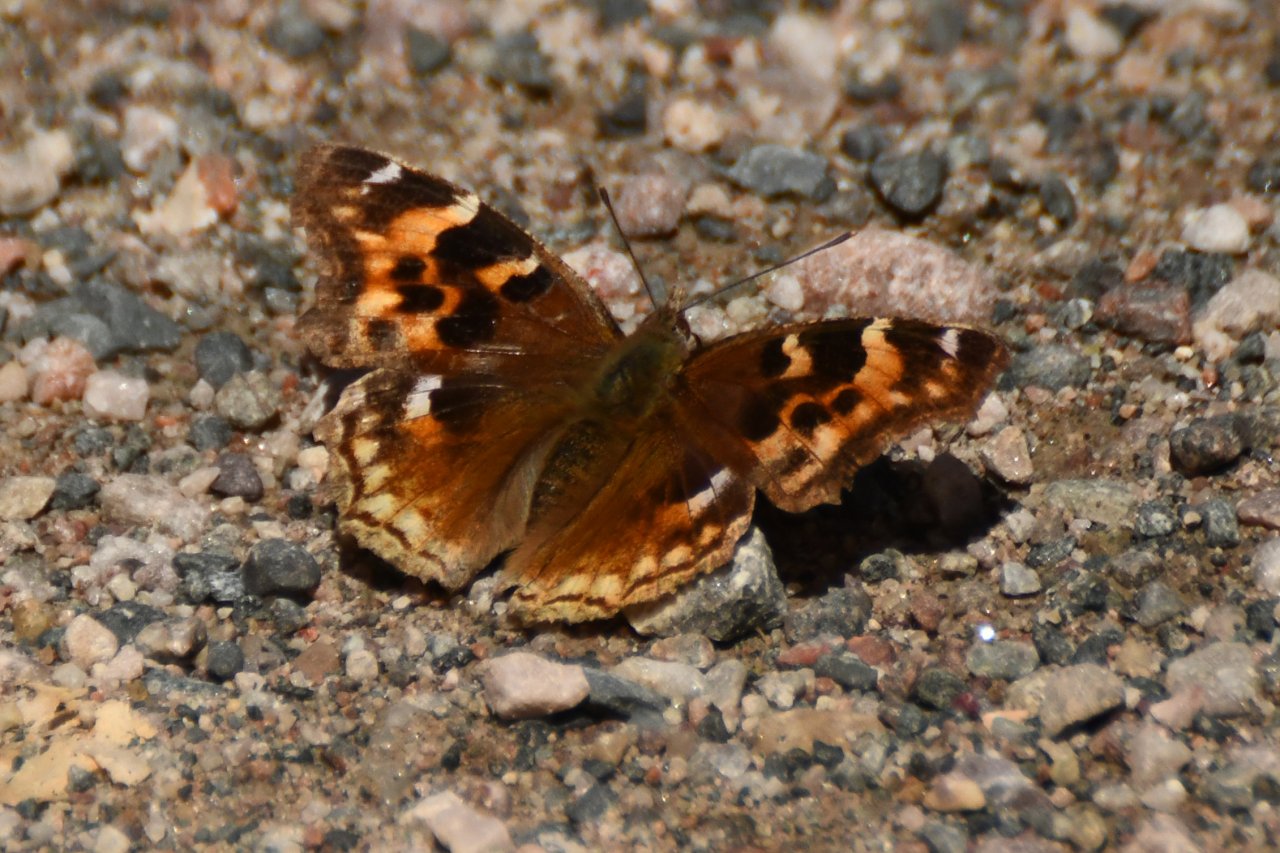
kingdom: Animalia
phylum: Arthropoda
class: Insecta
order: Lepidoptera
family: Nymphalidae
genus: Polygonia
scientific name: Polygonia vaualbum
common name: Compton Tortoiseshell
